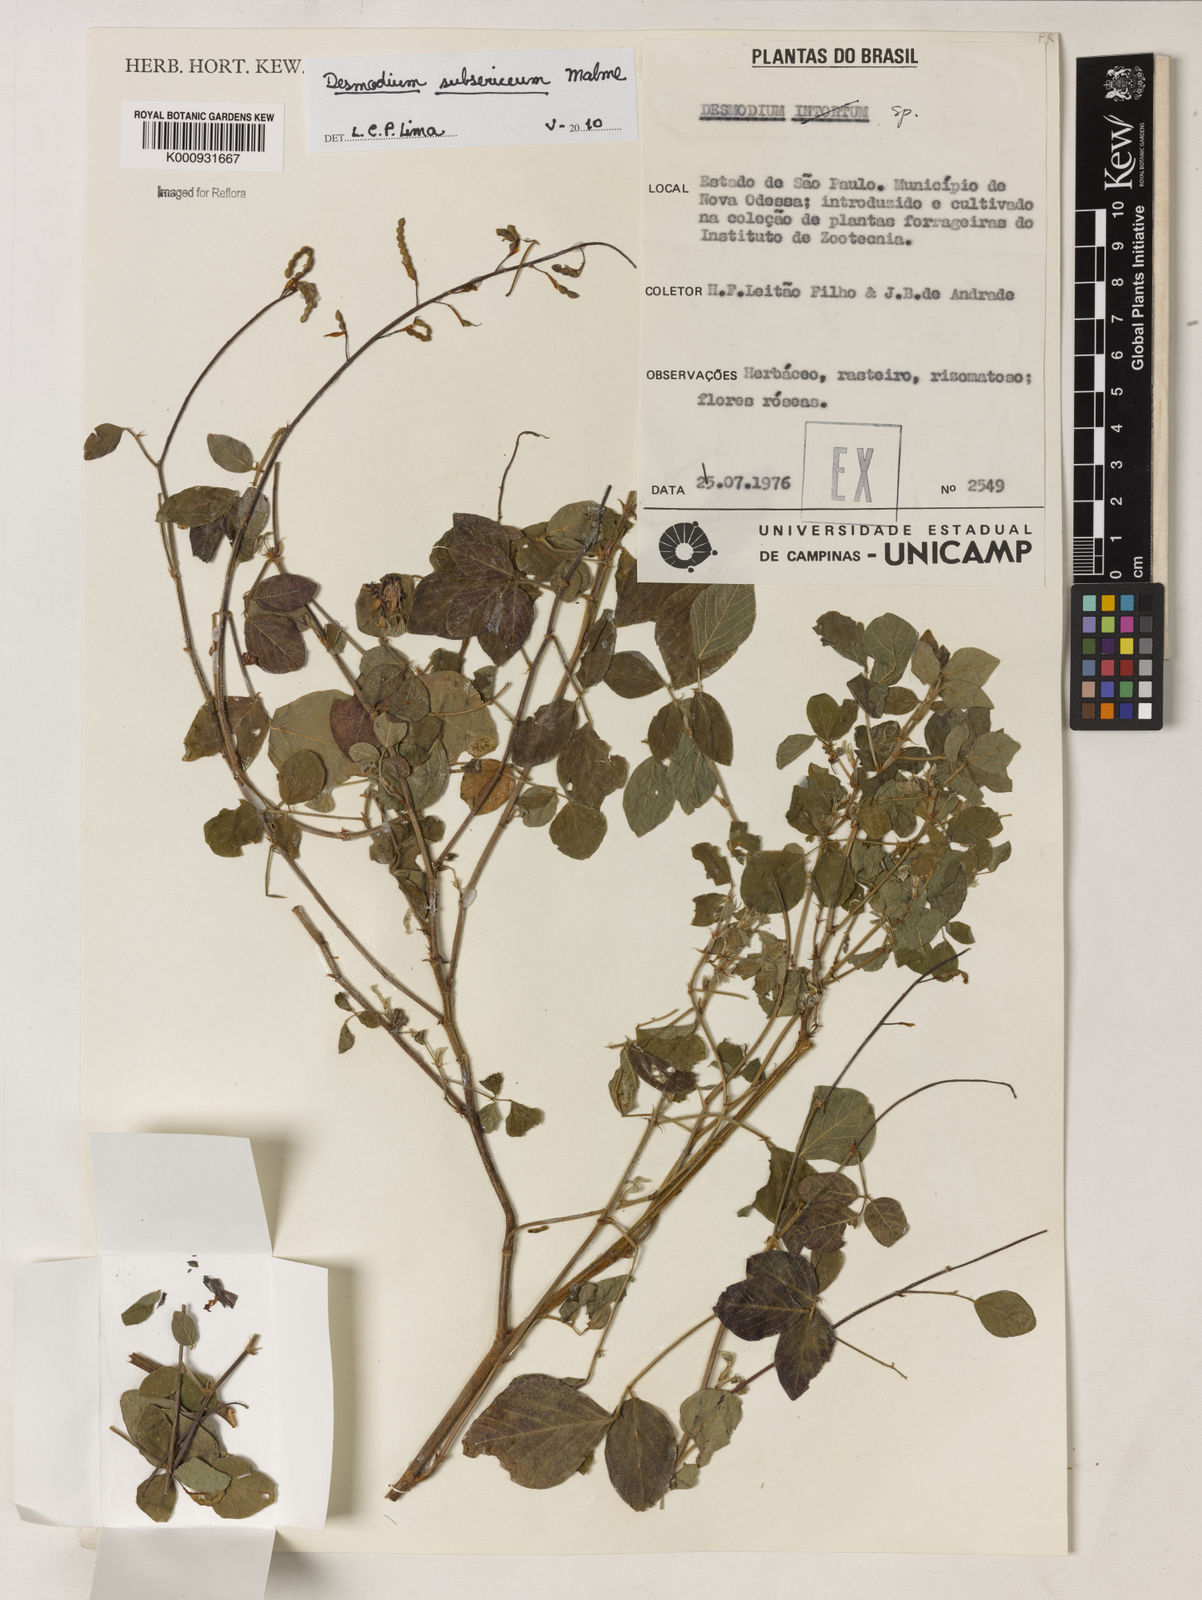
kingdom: Plantae
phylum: Tracheophyta
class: Magnoliopsida
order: Fabales
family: Fabaceae
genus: Desmodium
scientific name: Desmodium subsericeum
